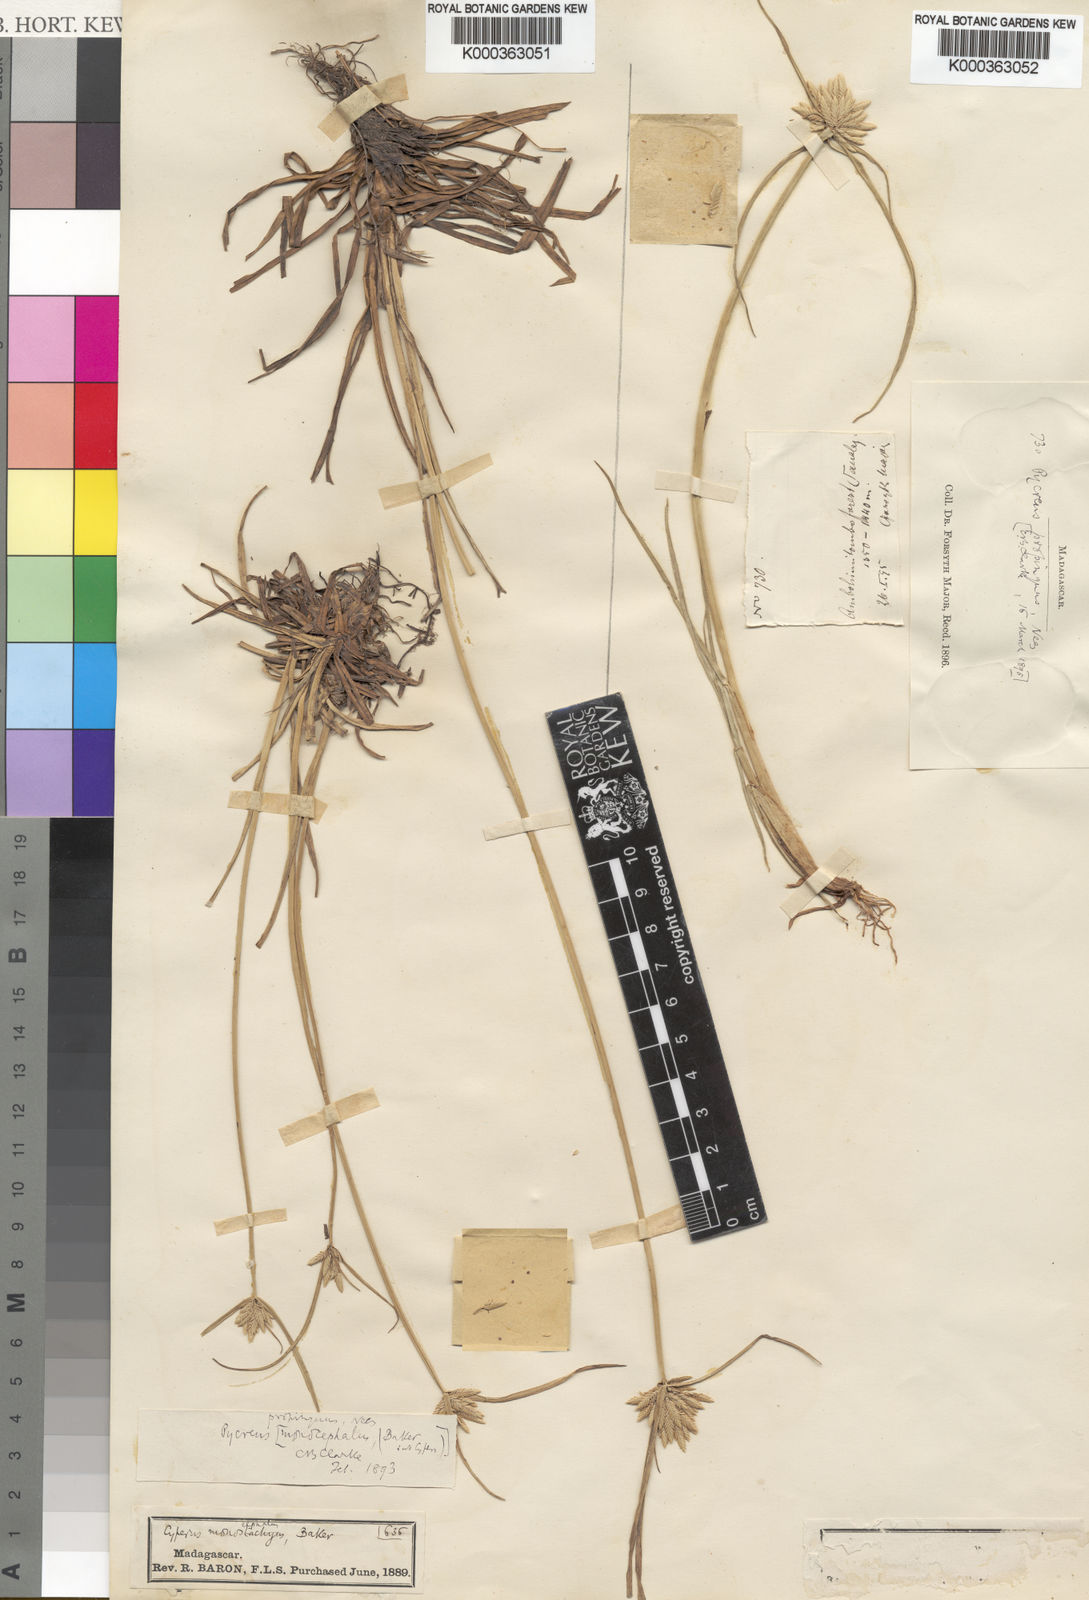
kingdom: Plantae
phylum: Tracheophyta
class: Liliopsida
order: Poales
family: Cyperaceae
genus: Cyperus
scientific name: Cyperus smithianus
